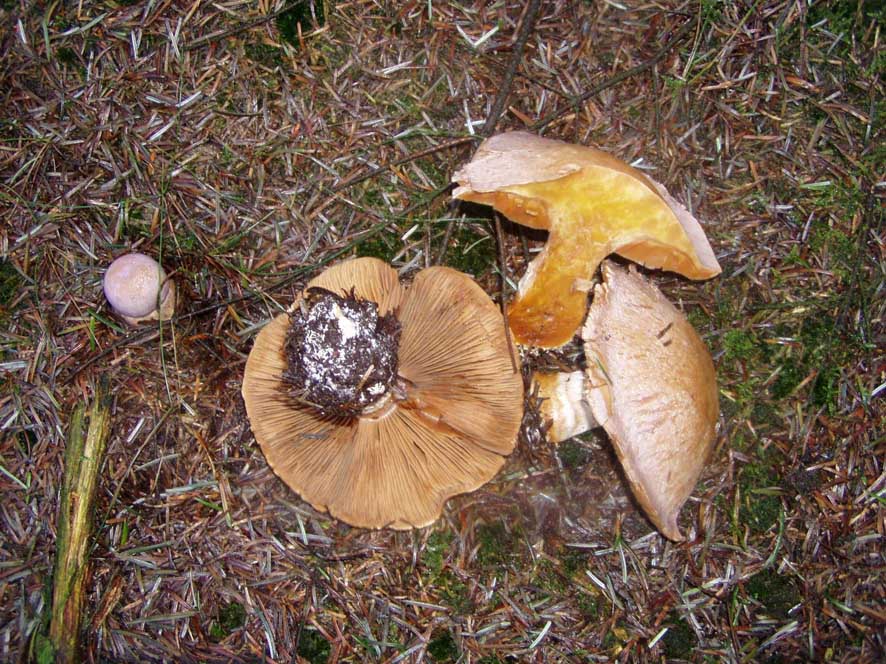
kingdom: Fungi
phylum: Basidiomycota
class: Agaricomycetes
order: Agaricales
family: Cortinariaceae
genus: Cortinarius
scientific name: Cortinarius traganus
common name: safrankødet slørhat
